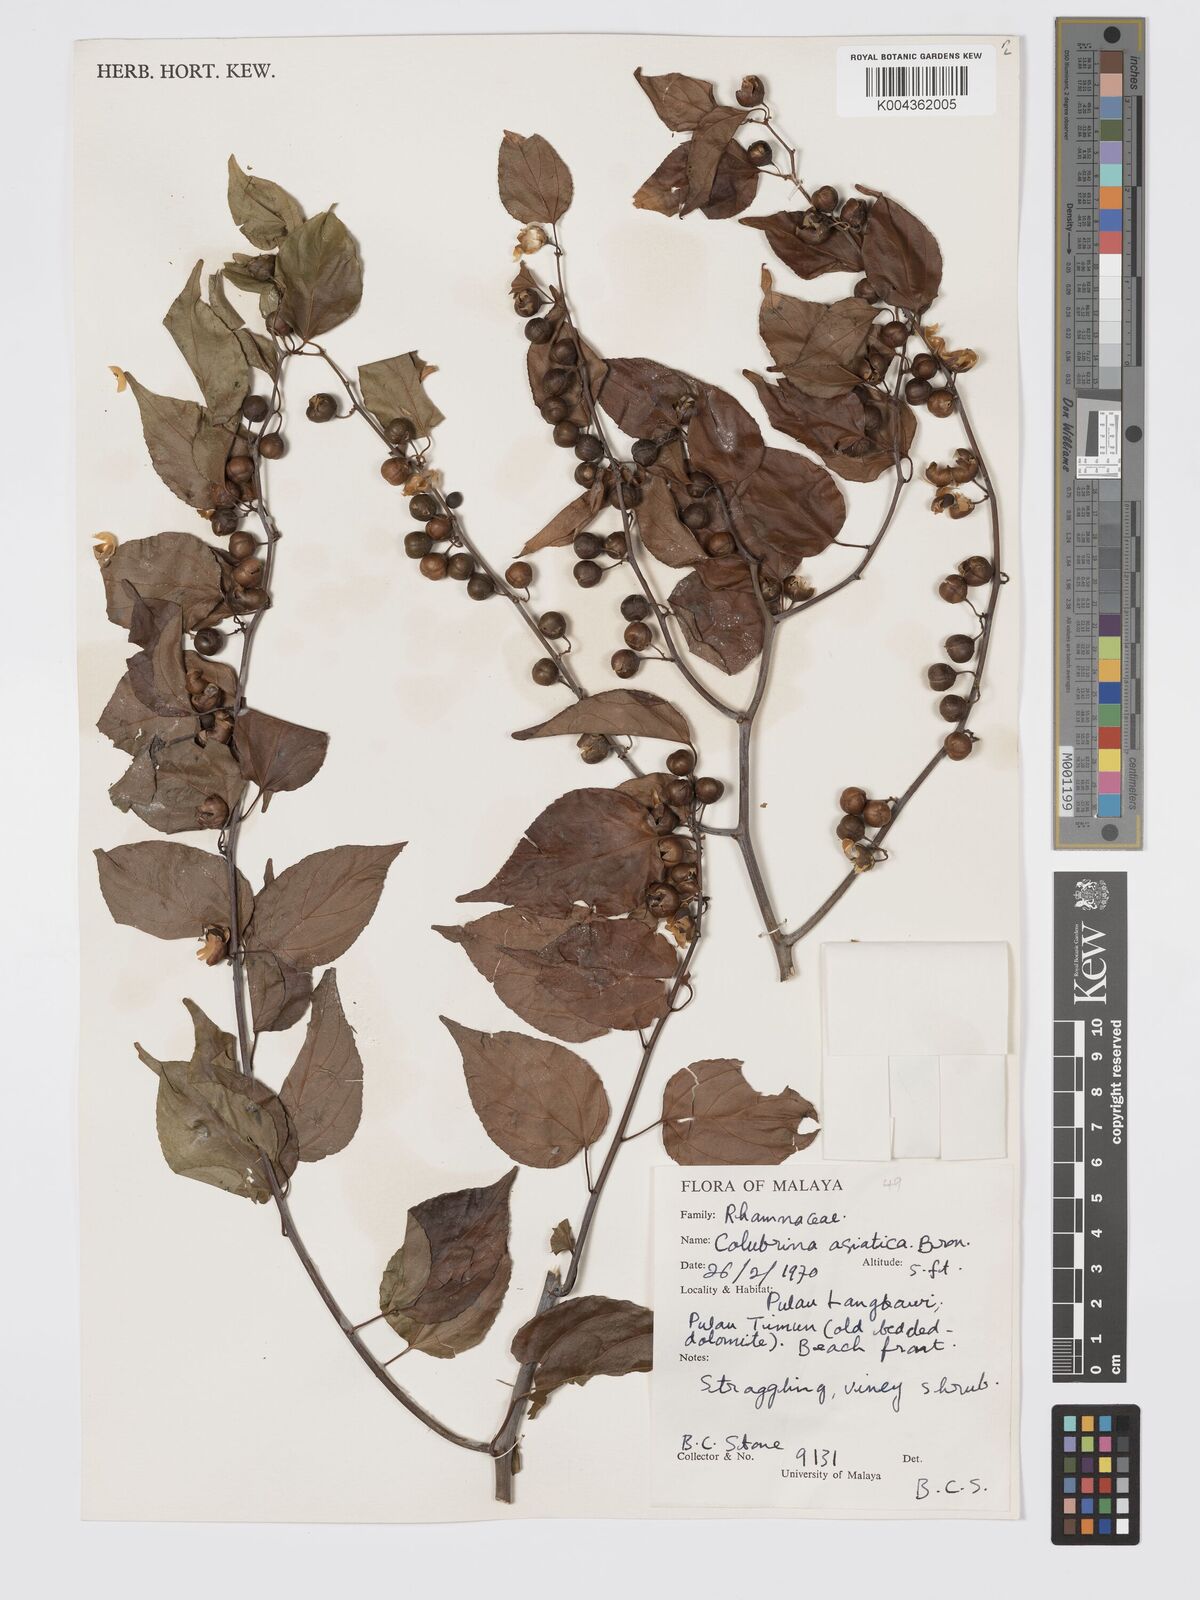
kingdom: Plantae
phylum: Tracheophyta
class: Magnoliopsida
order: Rosales
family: Rhamnaceae
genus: Colubrina
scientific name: Colubrina asiatica
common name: Asian nakedwood
